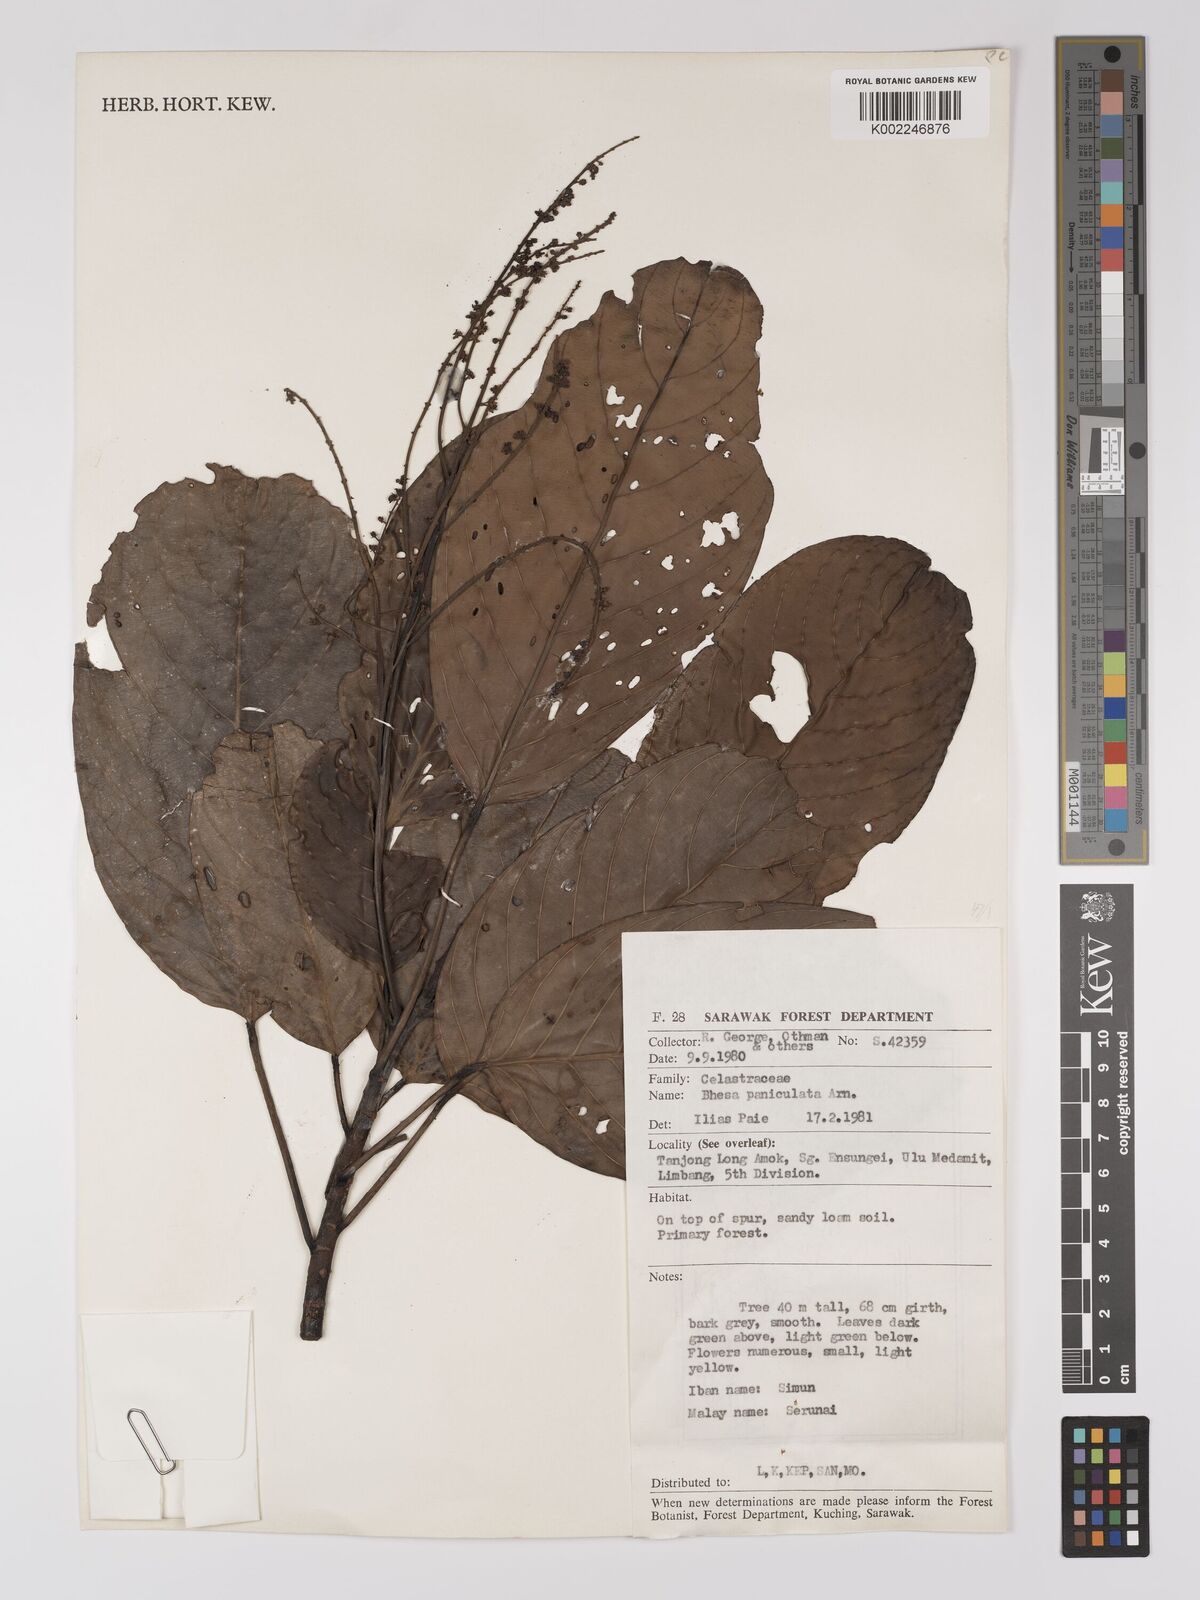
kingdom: Plantae
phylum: Tracheophyta
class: Magnoliopsida
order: Malpighiales
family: Centroplacaceae
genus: Bhesa
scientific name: Bhesa paniculata
